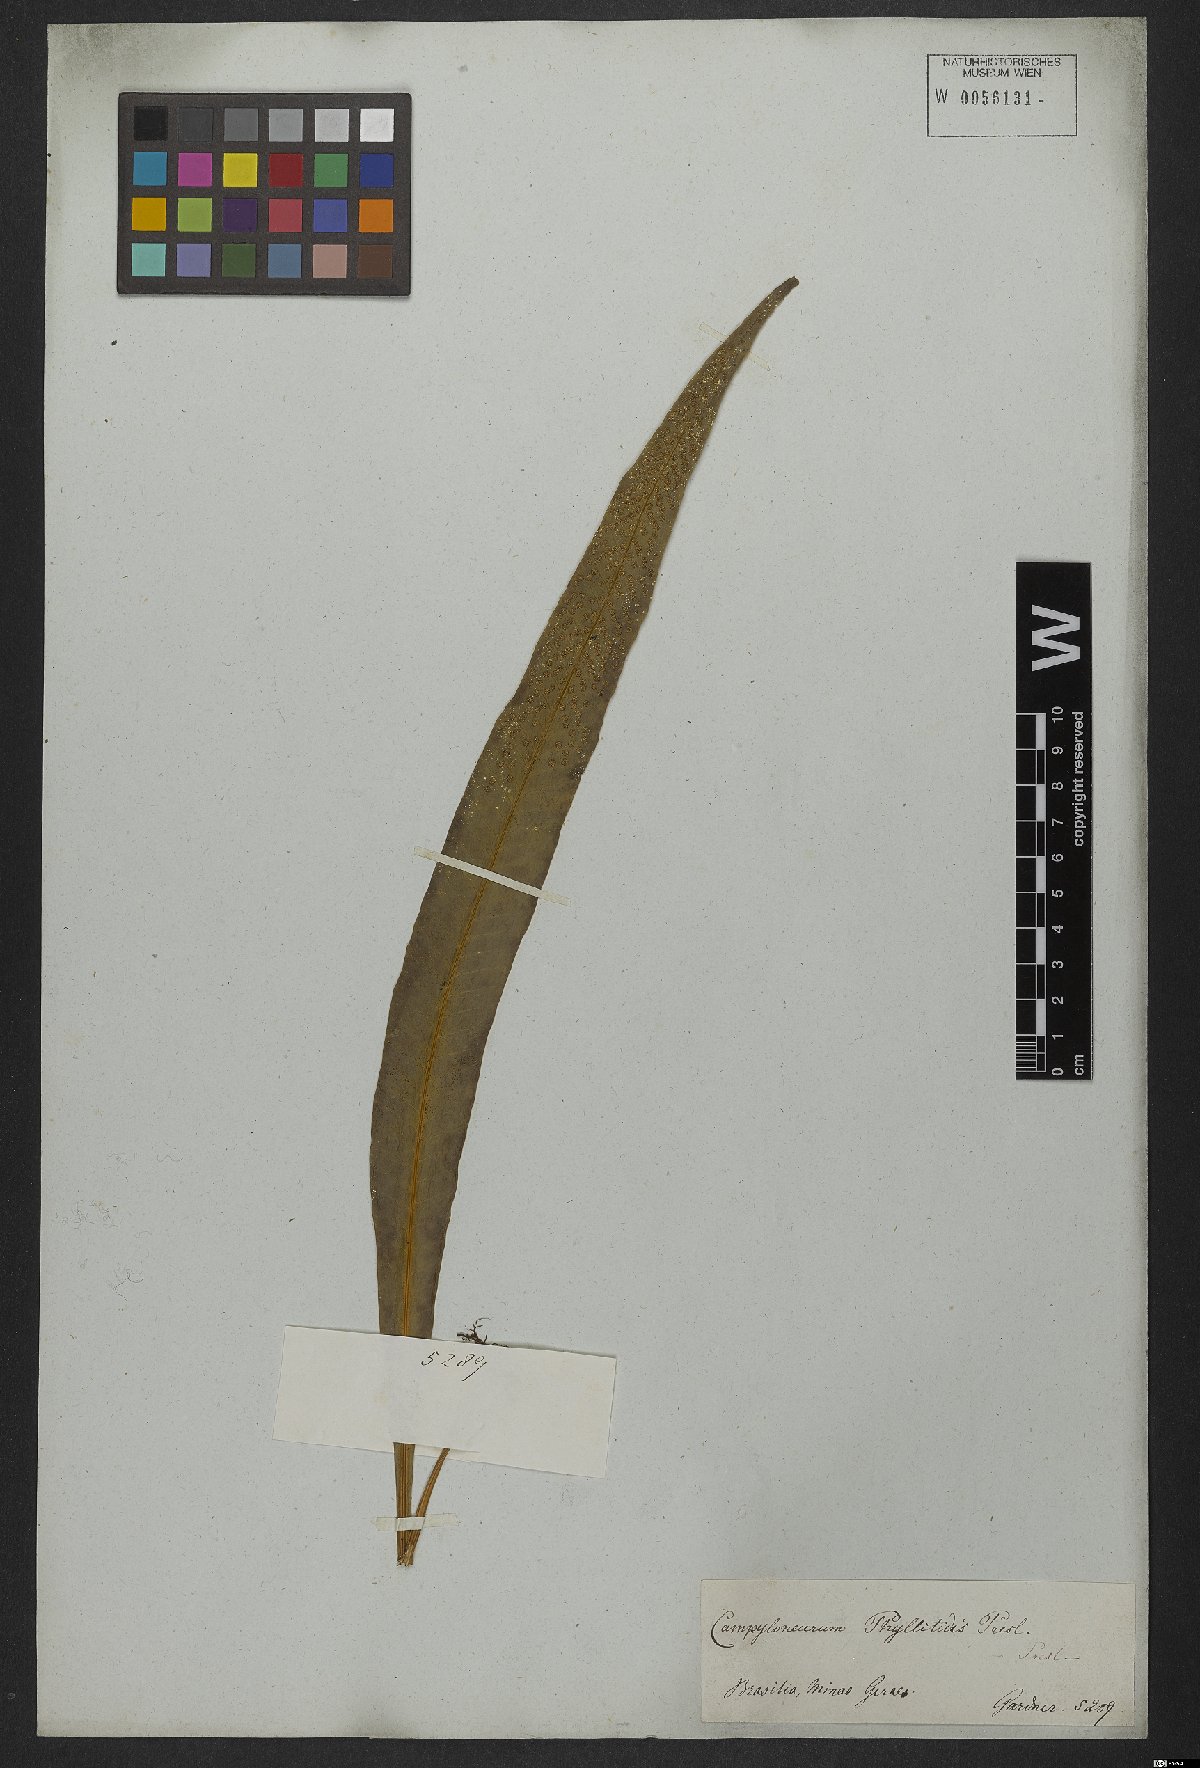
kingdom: Plantae
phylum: Tracheophyta
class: Polypodiopsida
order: Polypodiales
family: Polypodiaceae
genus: Campyloneurum
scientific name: Campyloneurum phyllitidis
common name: Cow-tongue fern
